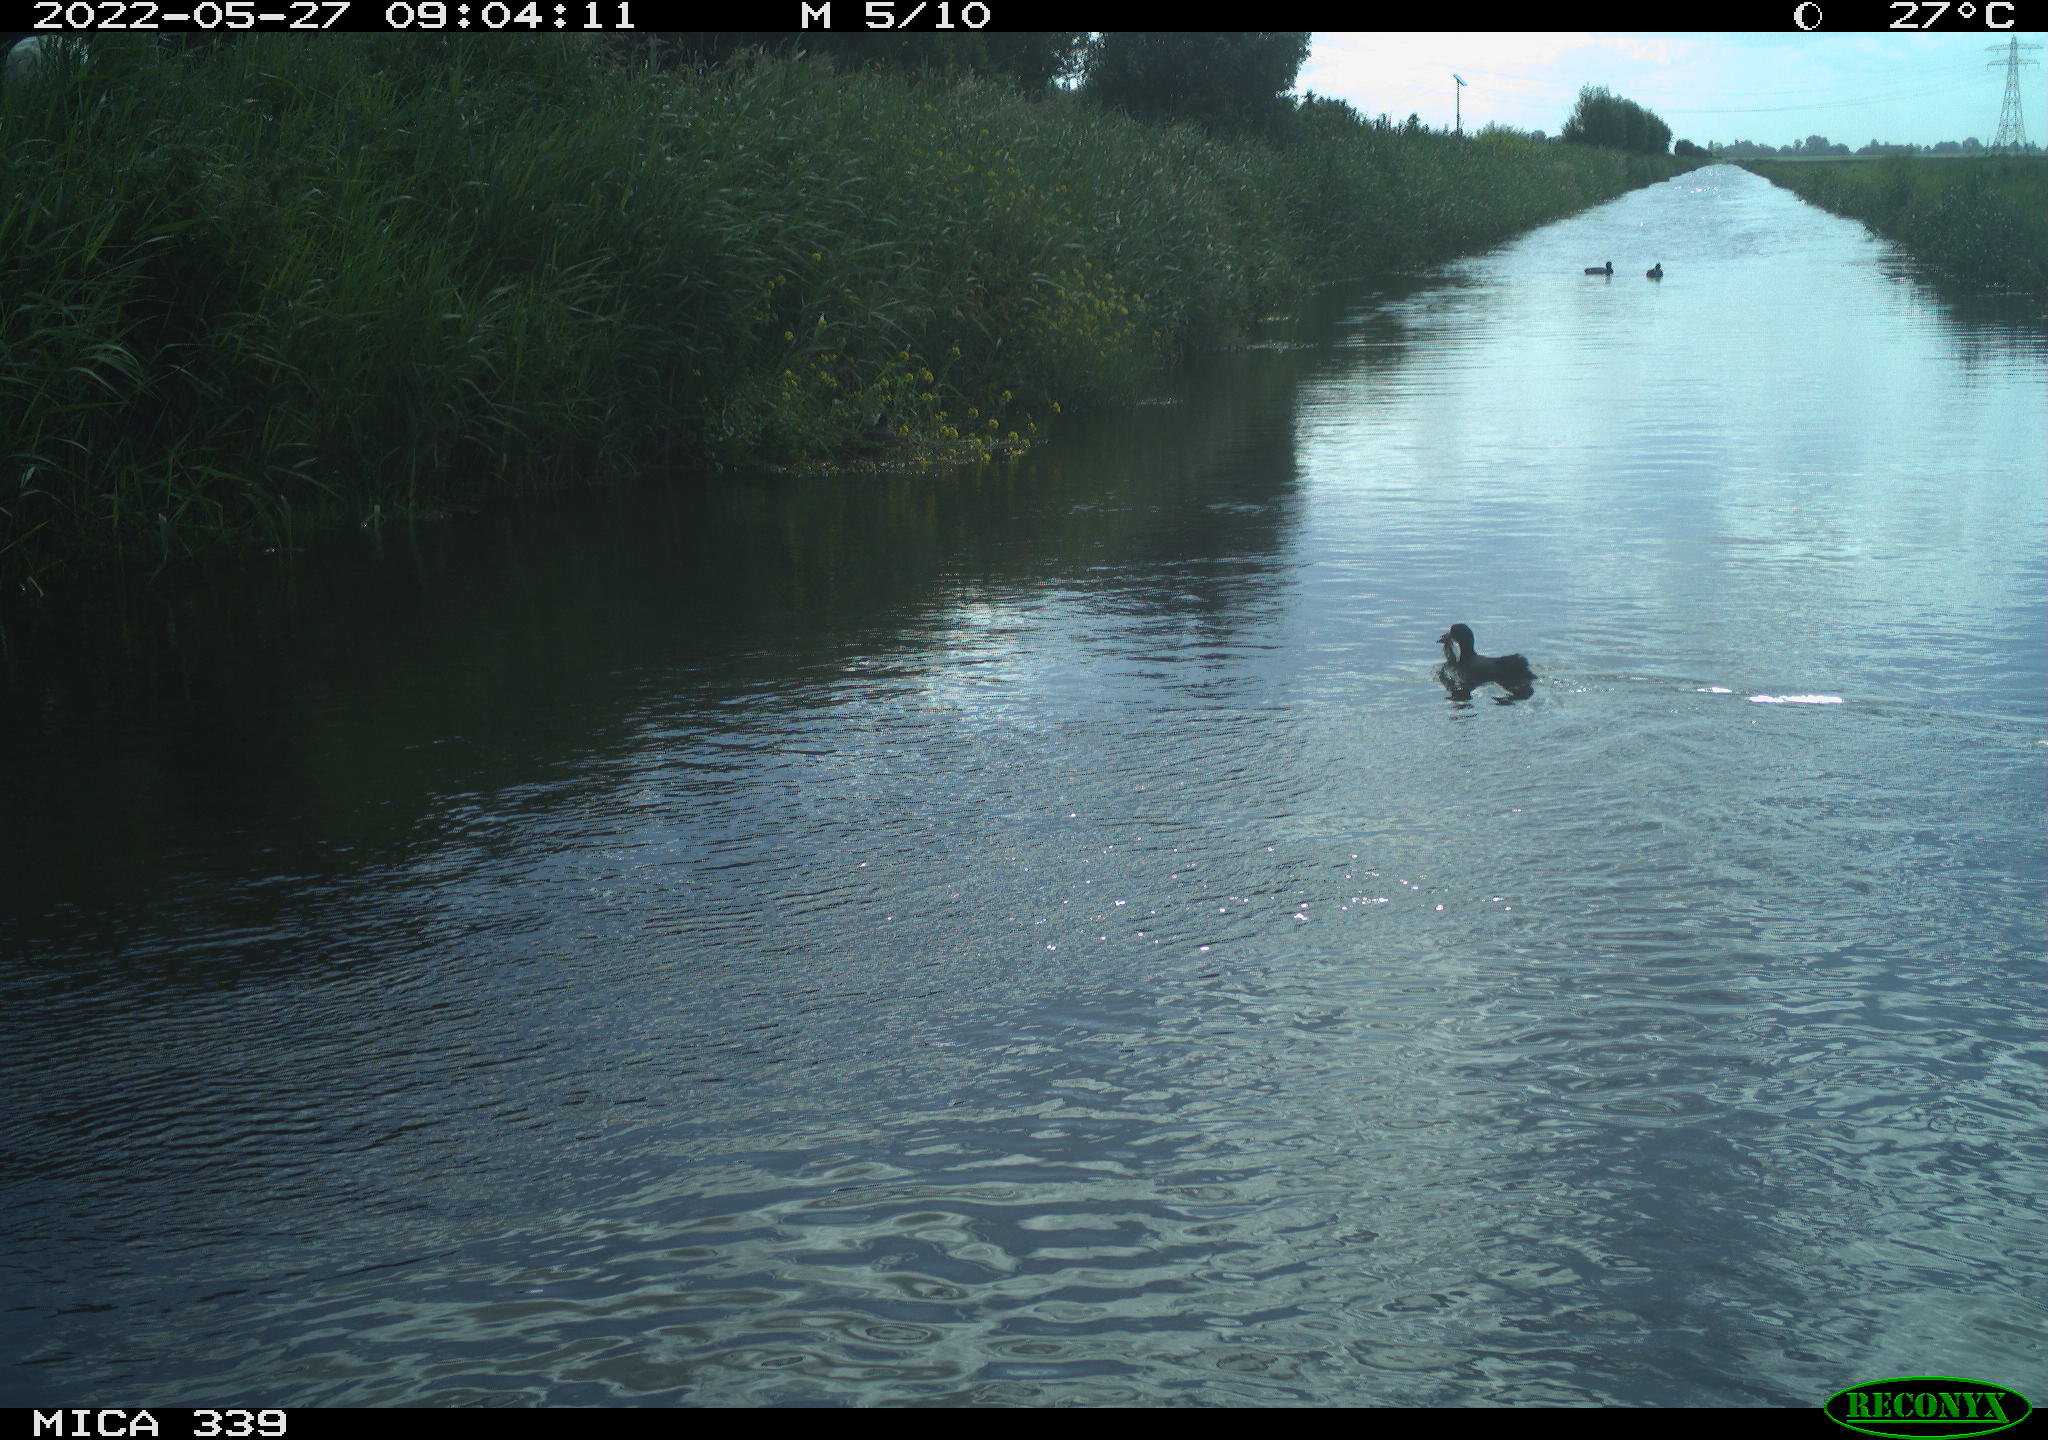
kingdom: Animalia
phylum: Chordata
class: Aves
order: Gruiformes
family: Rallidae
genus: Fulica
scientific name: Fulica atra
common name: Eurasian coot
